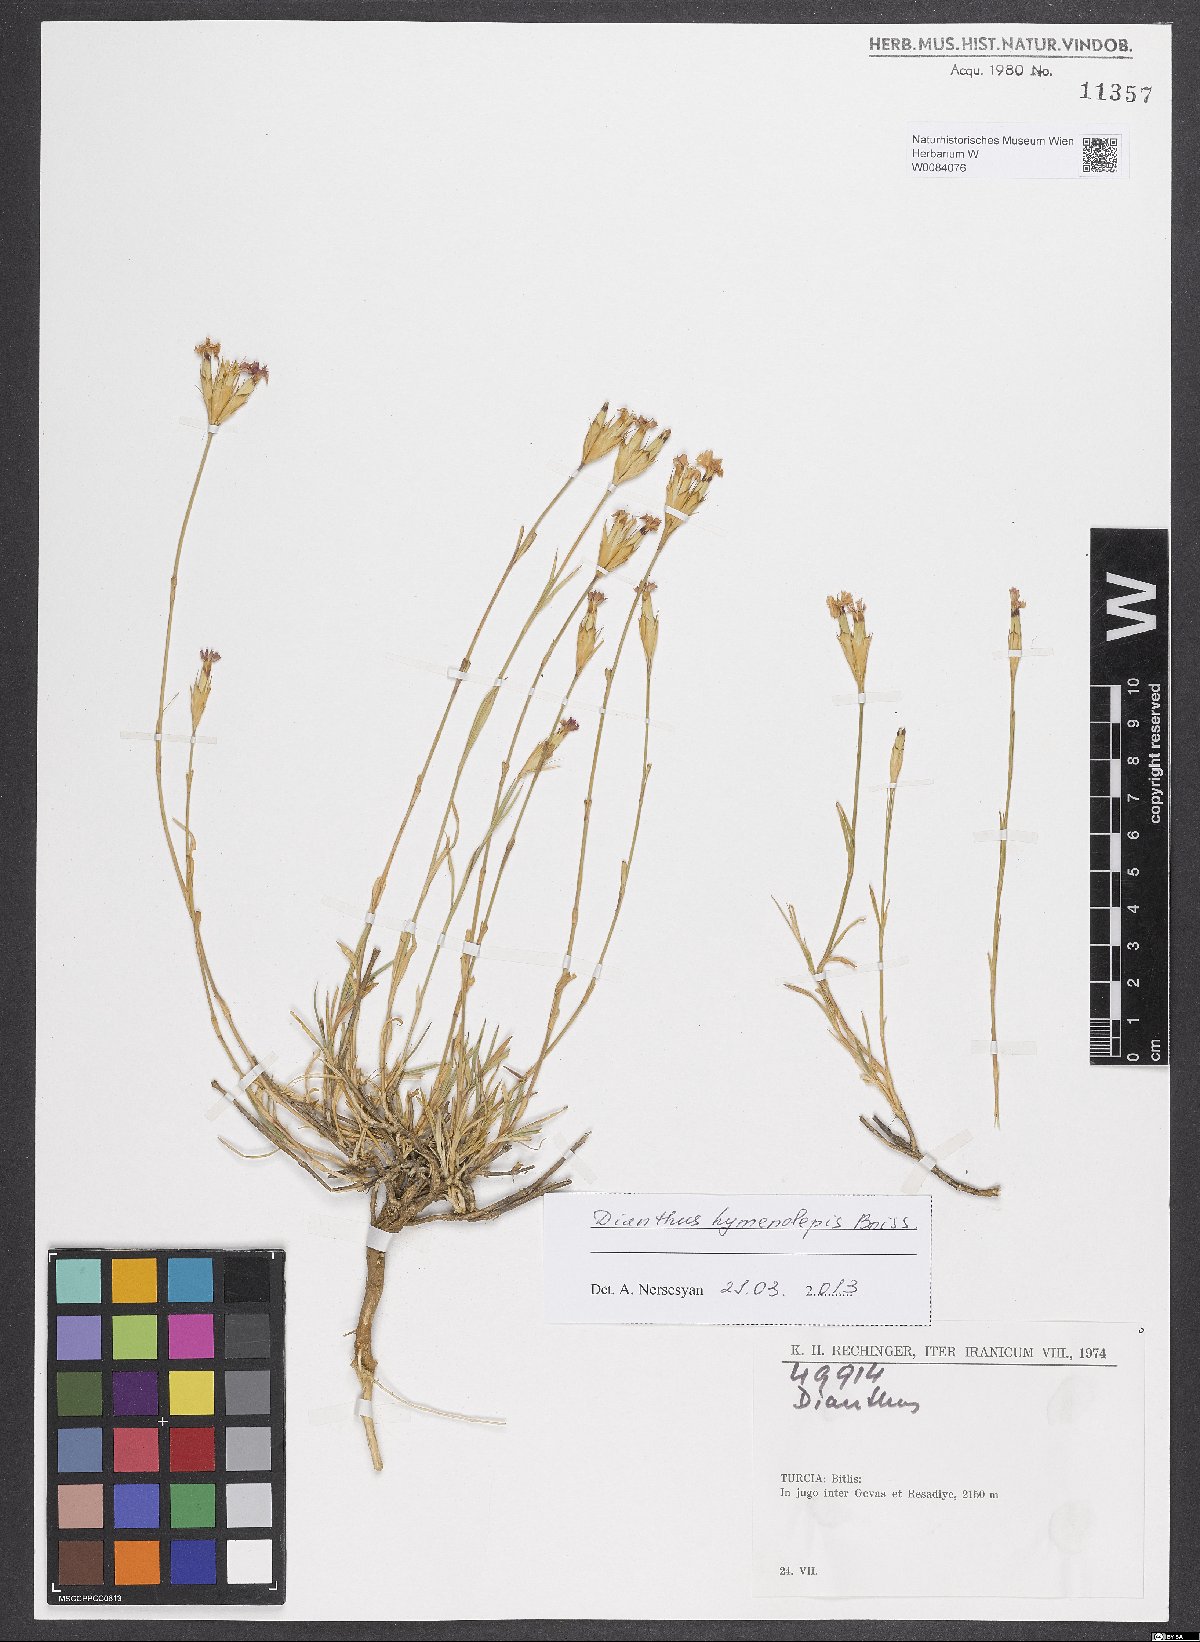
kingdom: Plantae
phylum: Tracheophyta
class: Magnoliopsida
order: Caryophyllales
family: Caryophyllaceae
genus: Dianthus
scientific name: Dianthus hymenolepis
